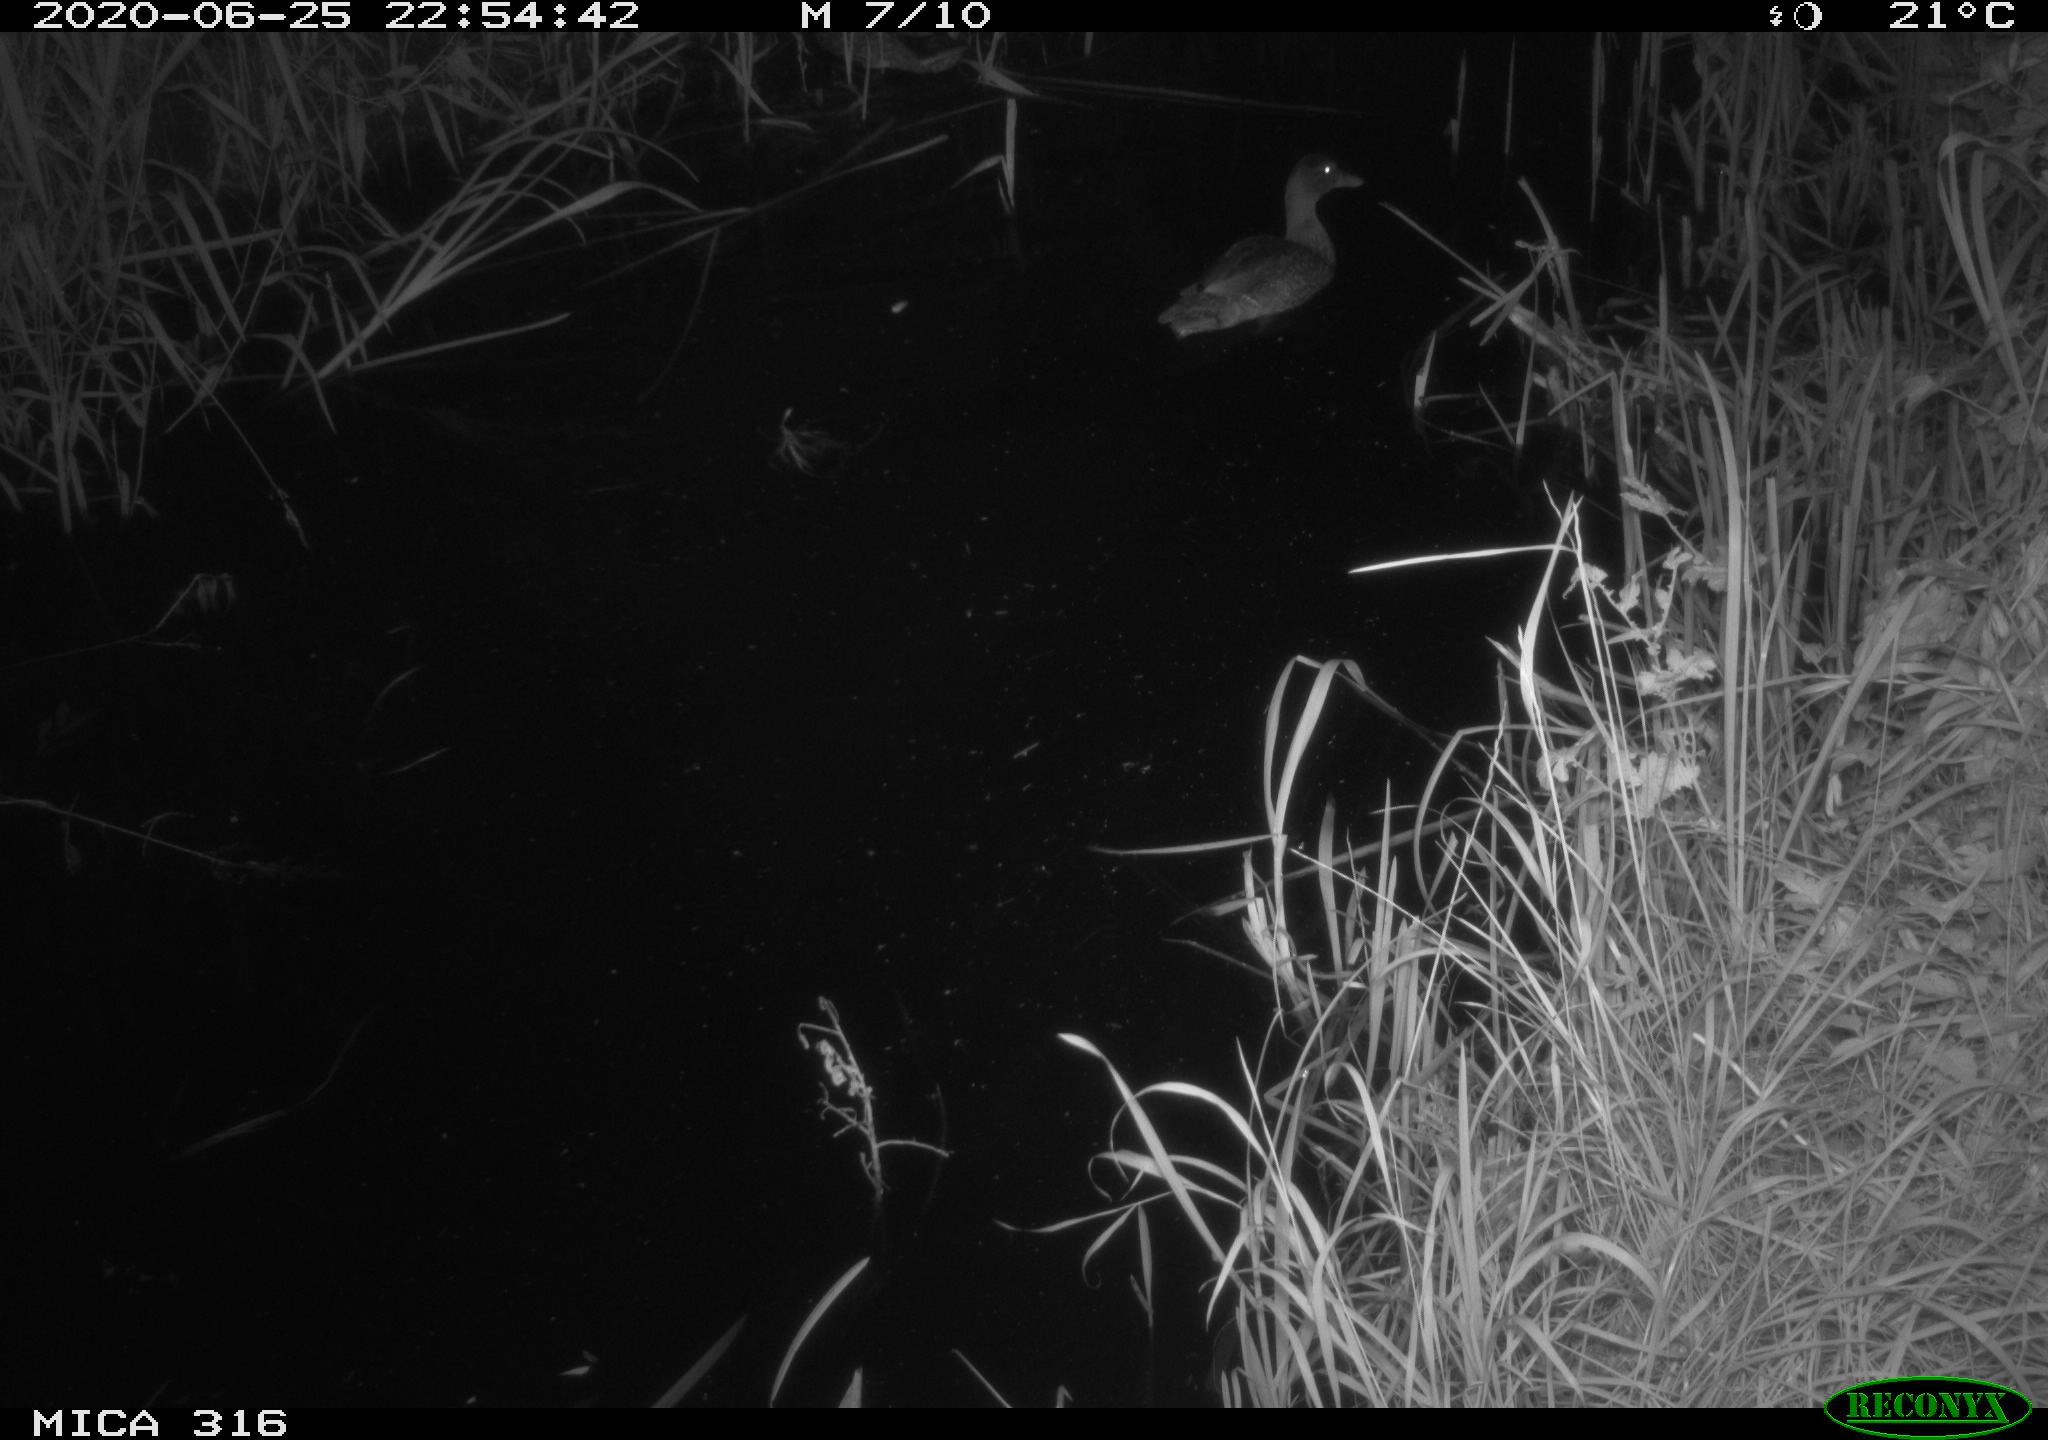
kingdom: Animalia
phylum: Chordata
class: Aves
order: Anseriformes
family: Anatidae
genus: Anas
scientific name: Anas platyrhynchos
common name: Mallard
